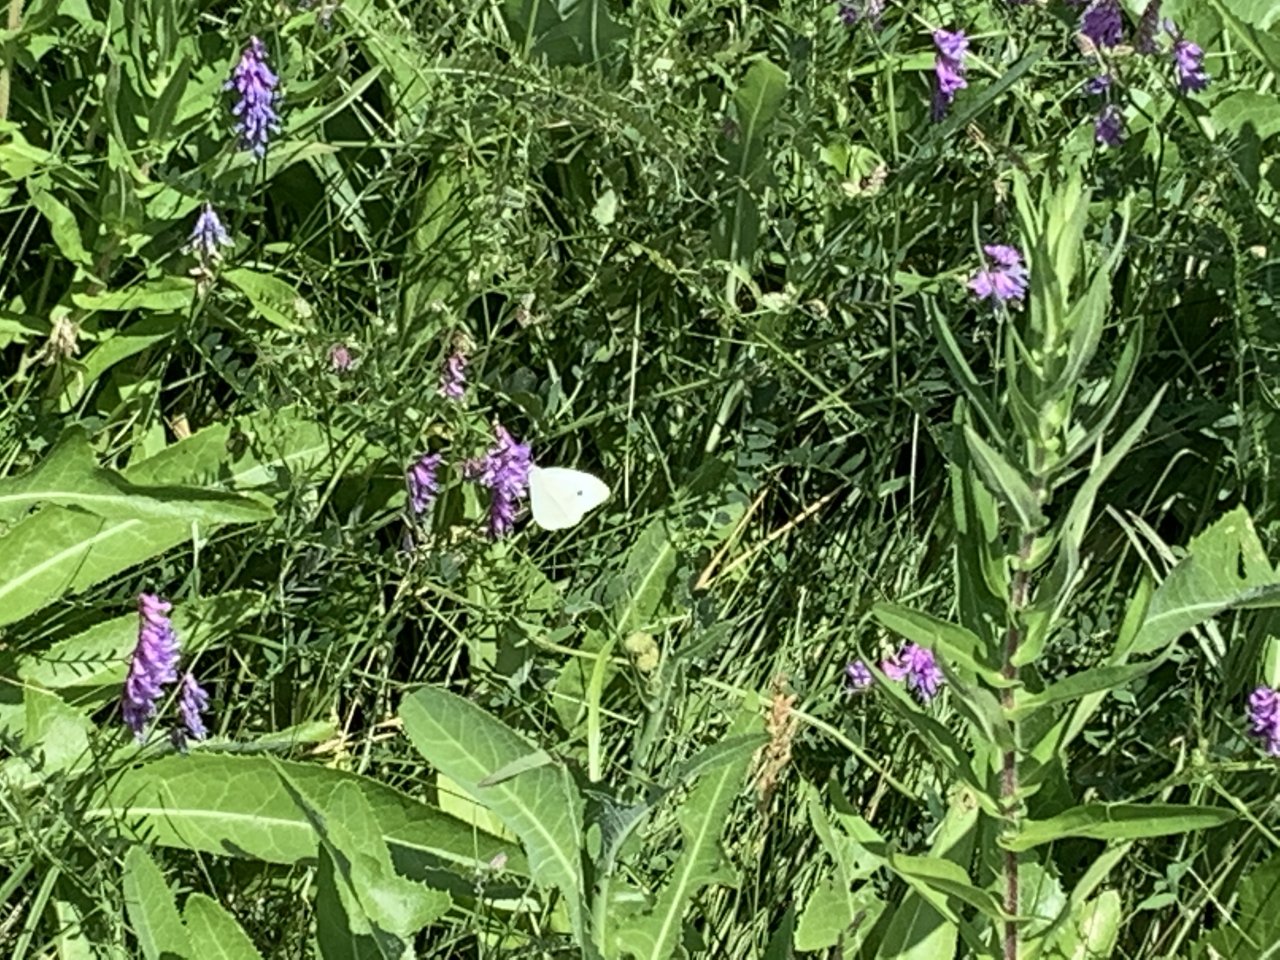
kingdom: Animalia
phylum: Arthropoda
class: Insecta
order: Lepidoptera
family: Pieridae
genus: Pieris
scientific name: Pieris rapae
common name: Cabbage White
